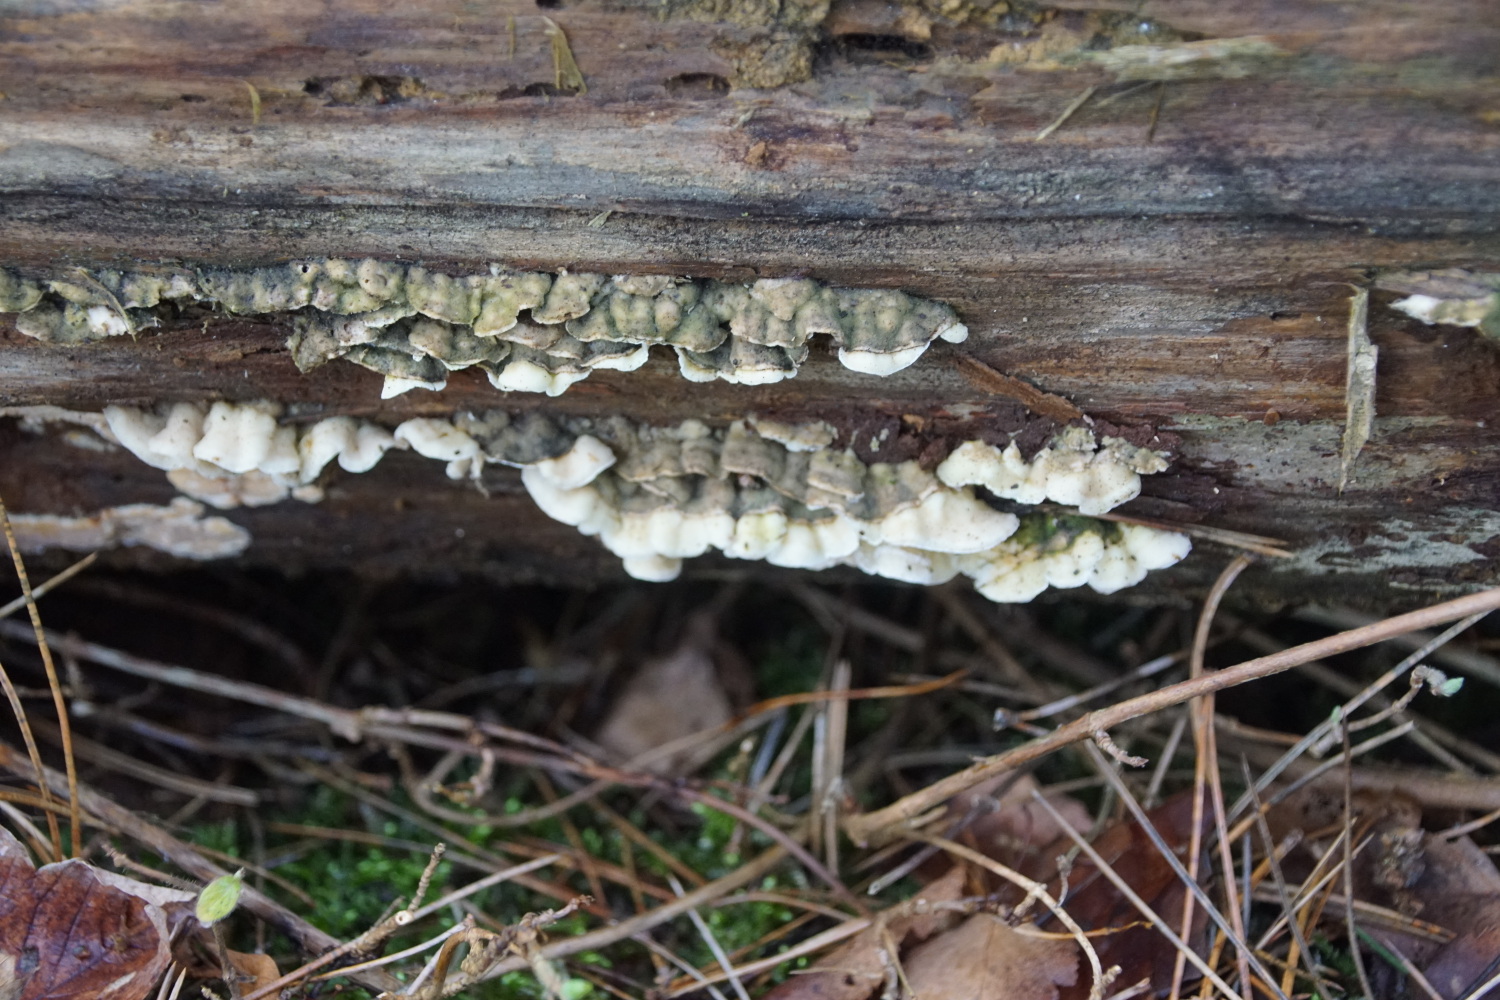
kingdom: Fungi
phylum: Basidiomycota
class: Agaricomycetes
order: Polyporales
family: Incrustoporiaceae
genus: Skeletocutis
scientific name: Skeletocutis amorpha
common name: orange krystalporesvamp
